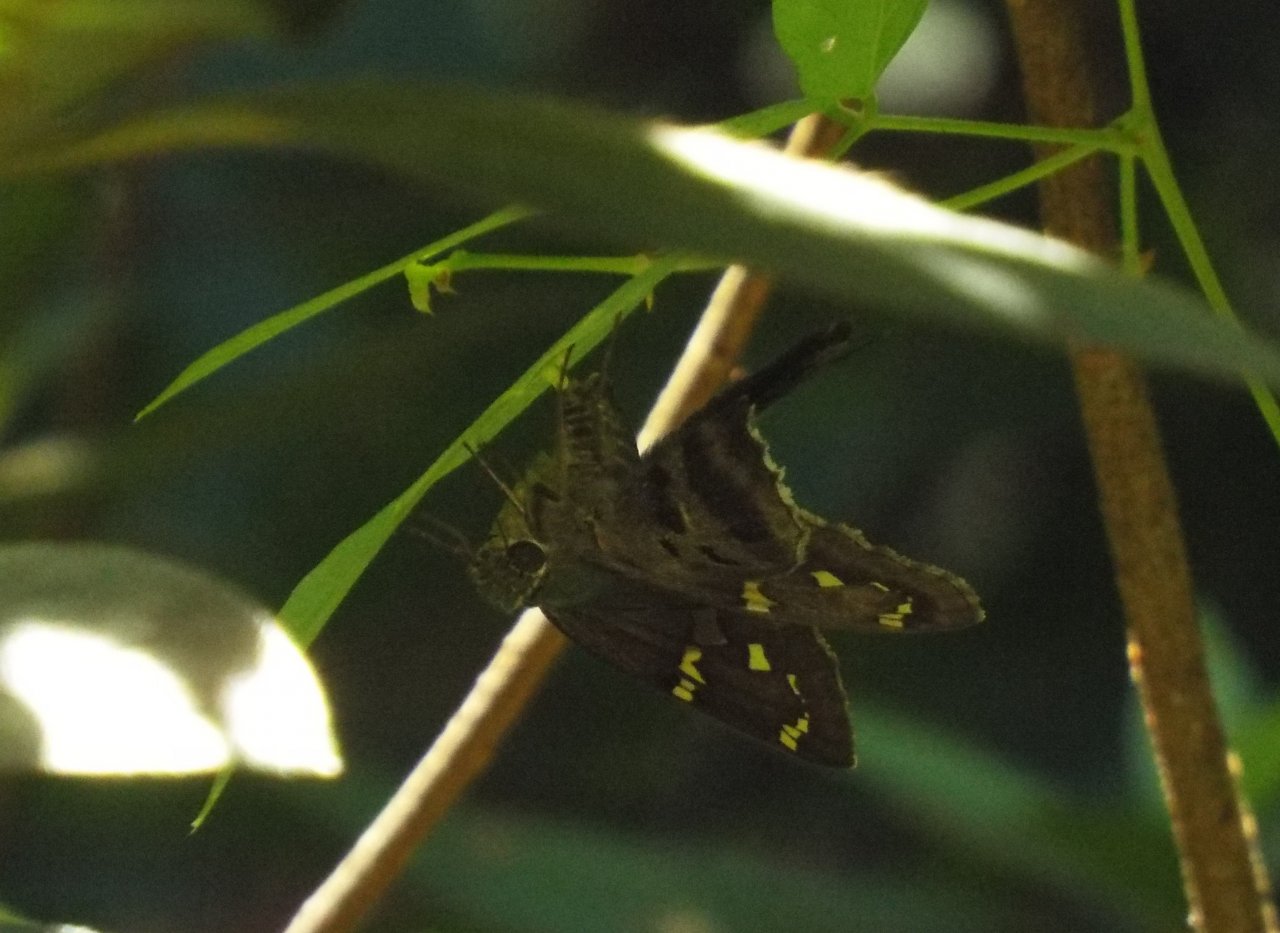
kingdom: Animalia
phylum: Arthropoda
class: Insecta
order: Lepidoptera
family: Hesperiidae
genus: Urbanus
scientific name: Urbanus proteus
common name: Long-tailed Skipper
